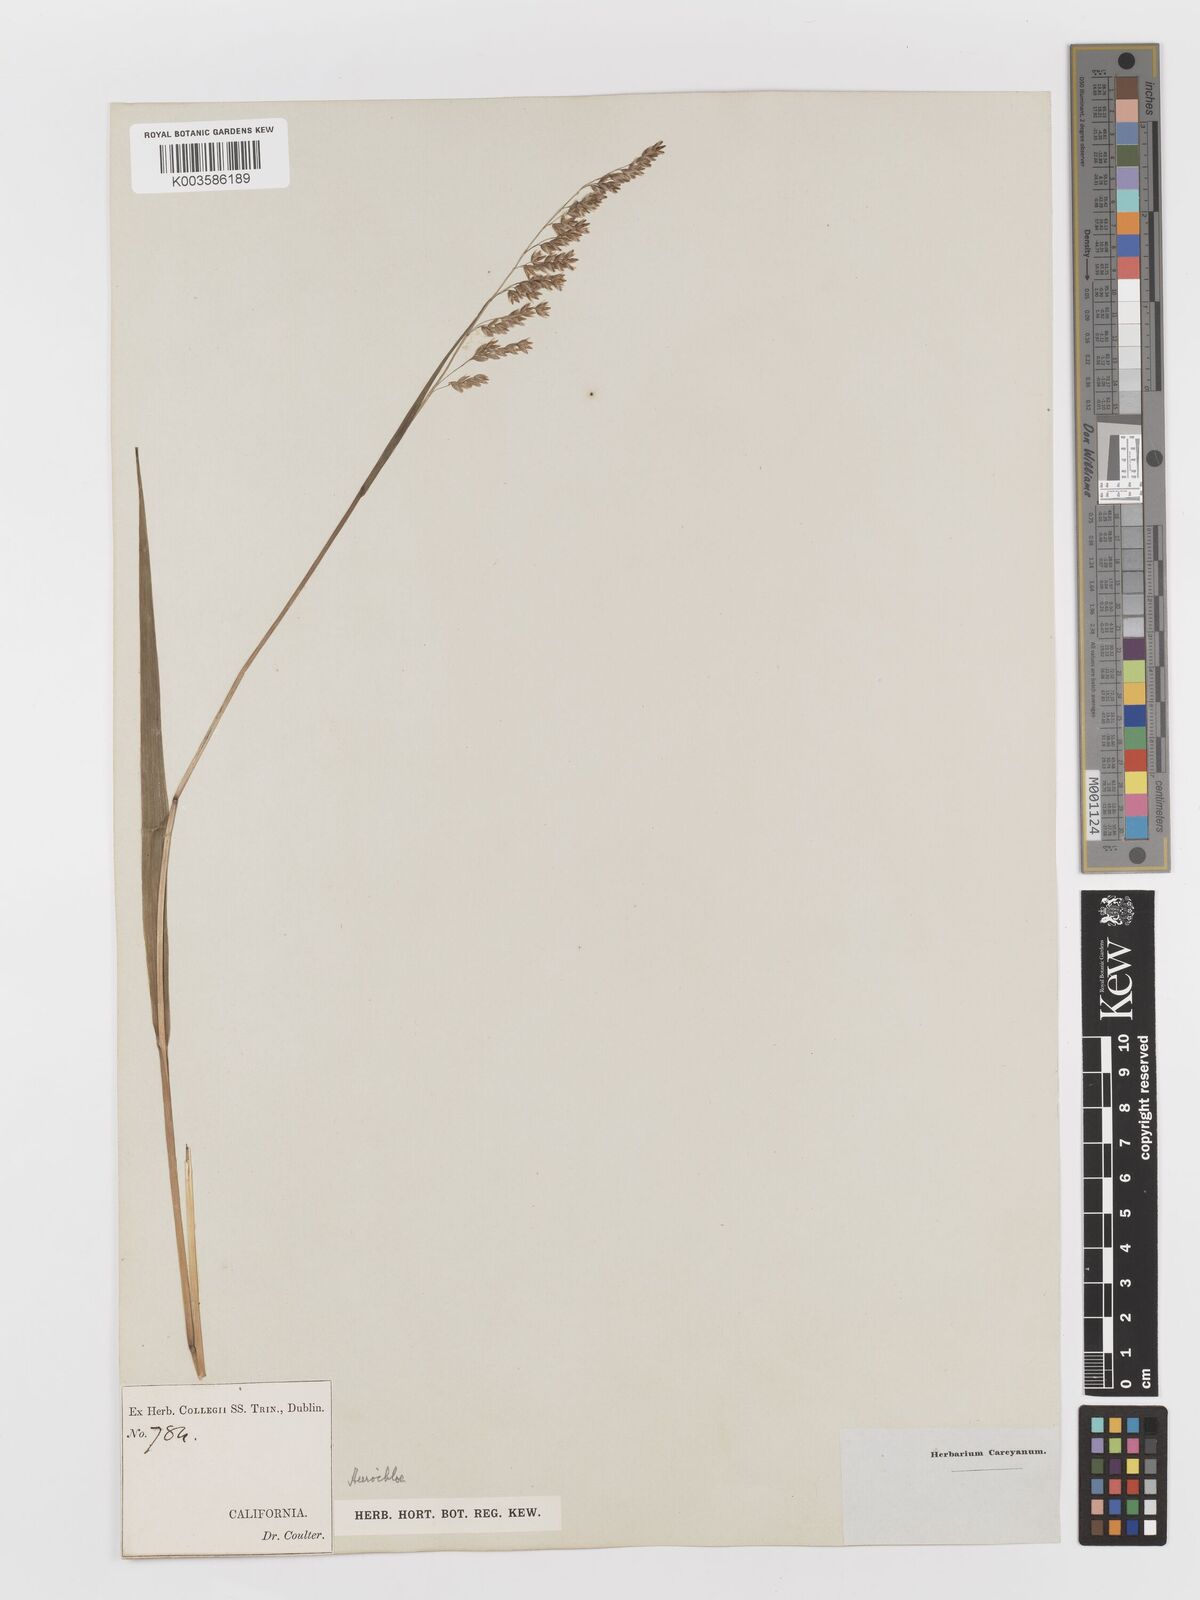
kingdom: Plantae
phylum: Tracheophyta
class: Liliopsida
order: Poales
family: Poaceae
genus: Anthoxanthum
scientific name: Anthoxanthum occidentale
